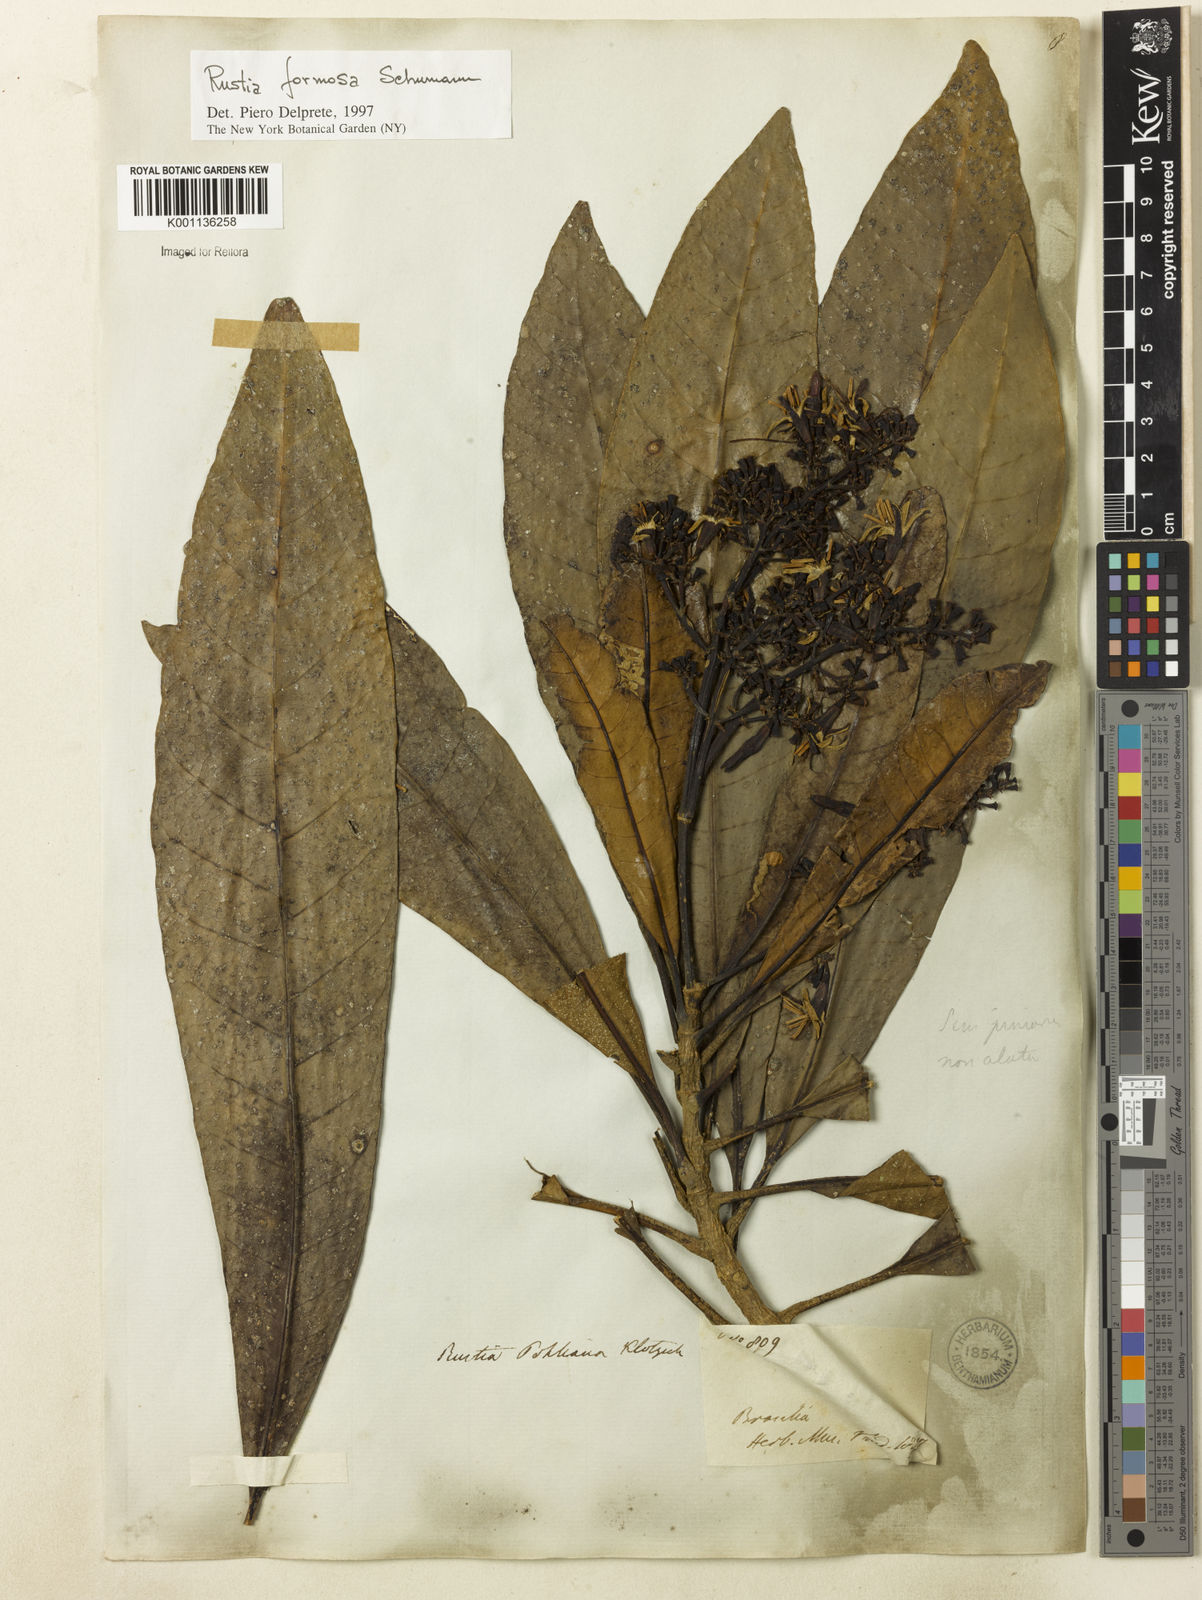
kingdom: Plantae
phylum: Tracheophyta
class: Magnoliopsida
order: Gentianales
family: Rubiaceae
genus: Rustia
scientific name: Rustia formosa
